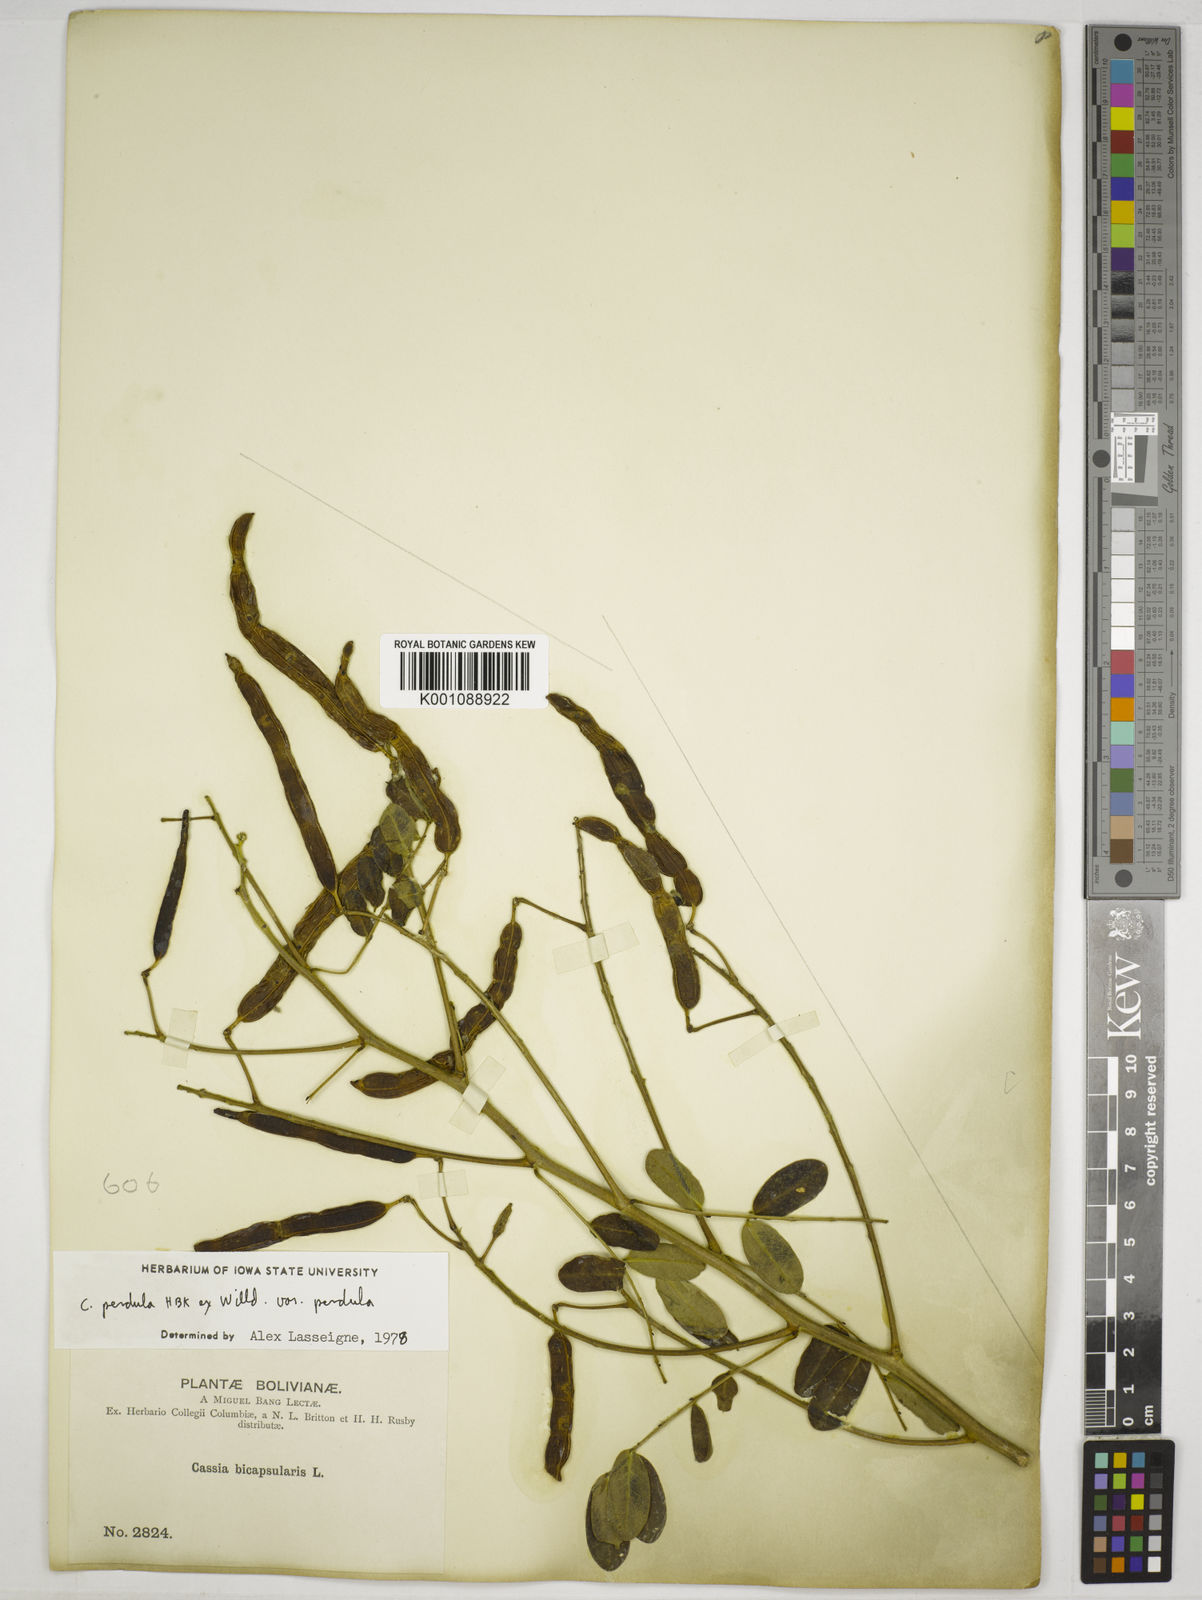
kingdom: Plantae
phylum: Tracheophyta
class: Magnoliopsida
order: Fabales
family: Fabaceae
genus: Senna
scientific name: Senna pendula
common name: Easter cassia
